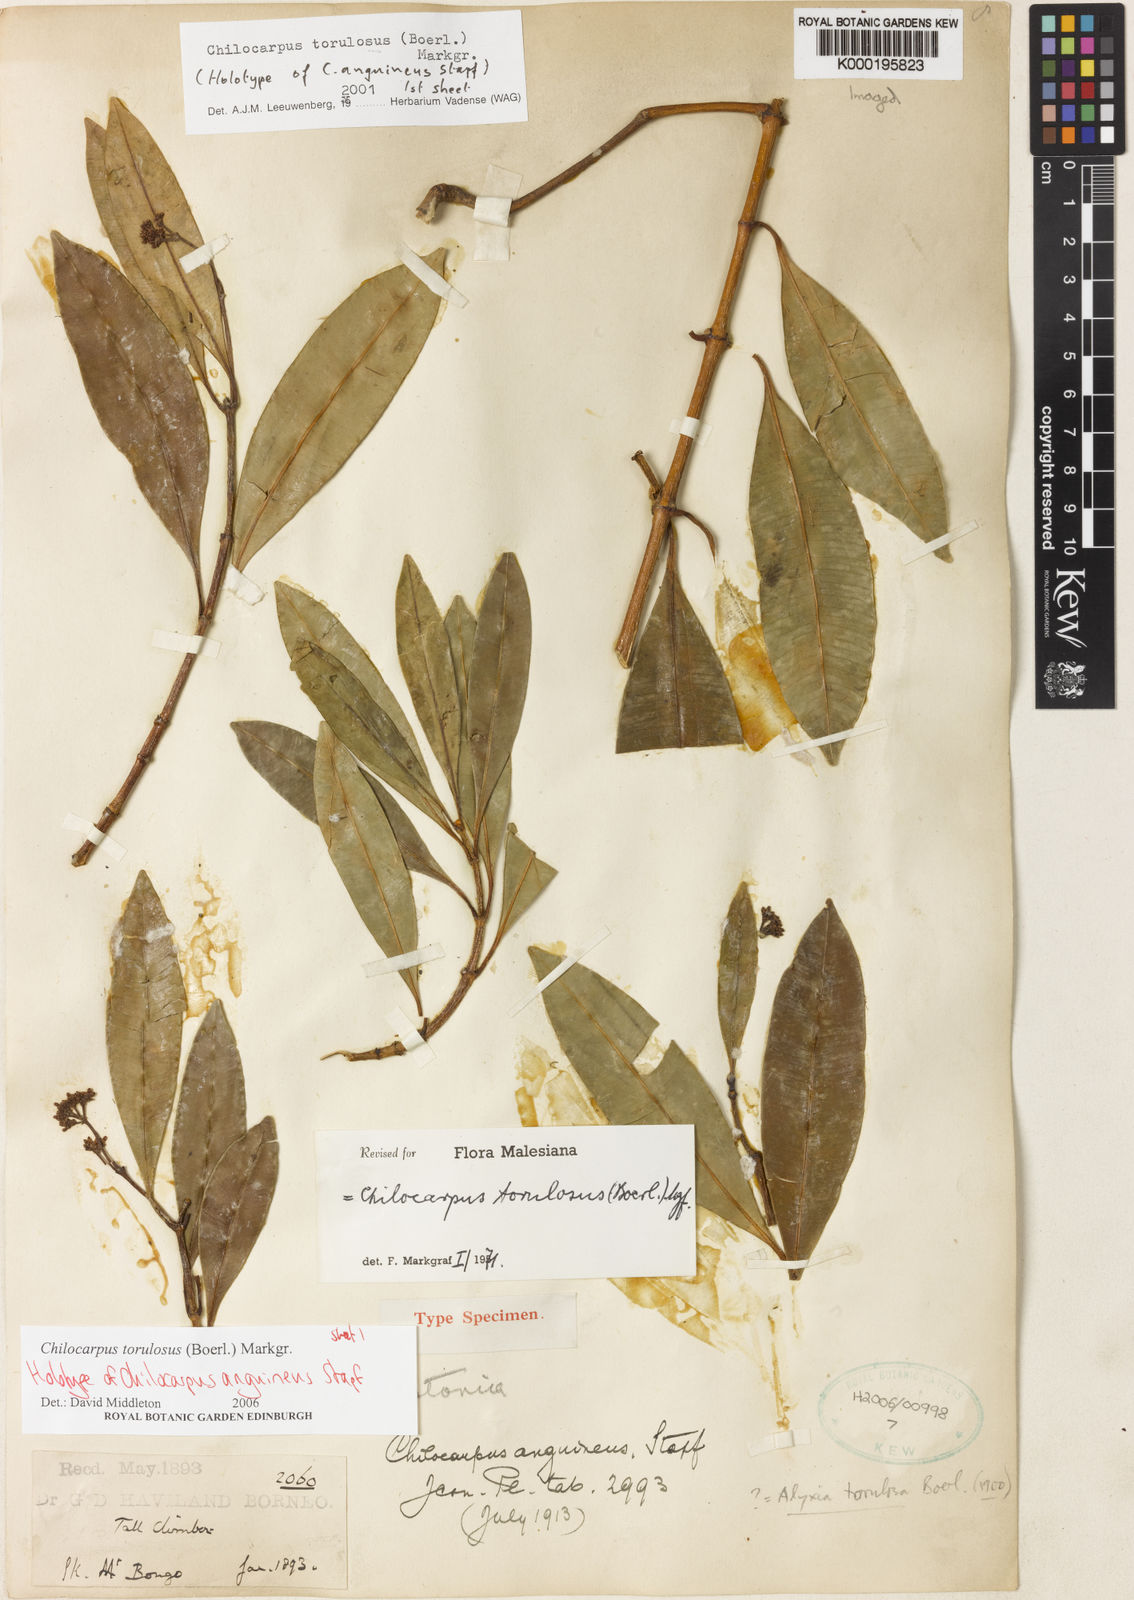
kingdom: Plantae
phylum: Tracheophyta
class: Magnoliopsida
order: Gentianales
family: Apocynaceae
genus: Chilocarpus
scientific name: Chilocarpus torulosus
